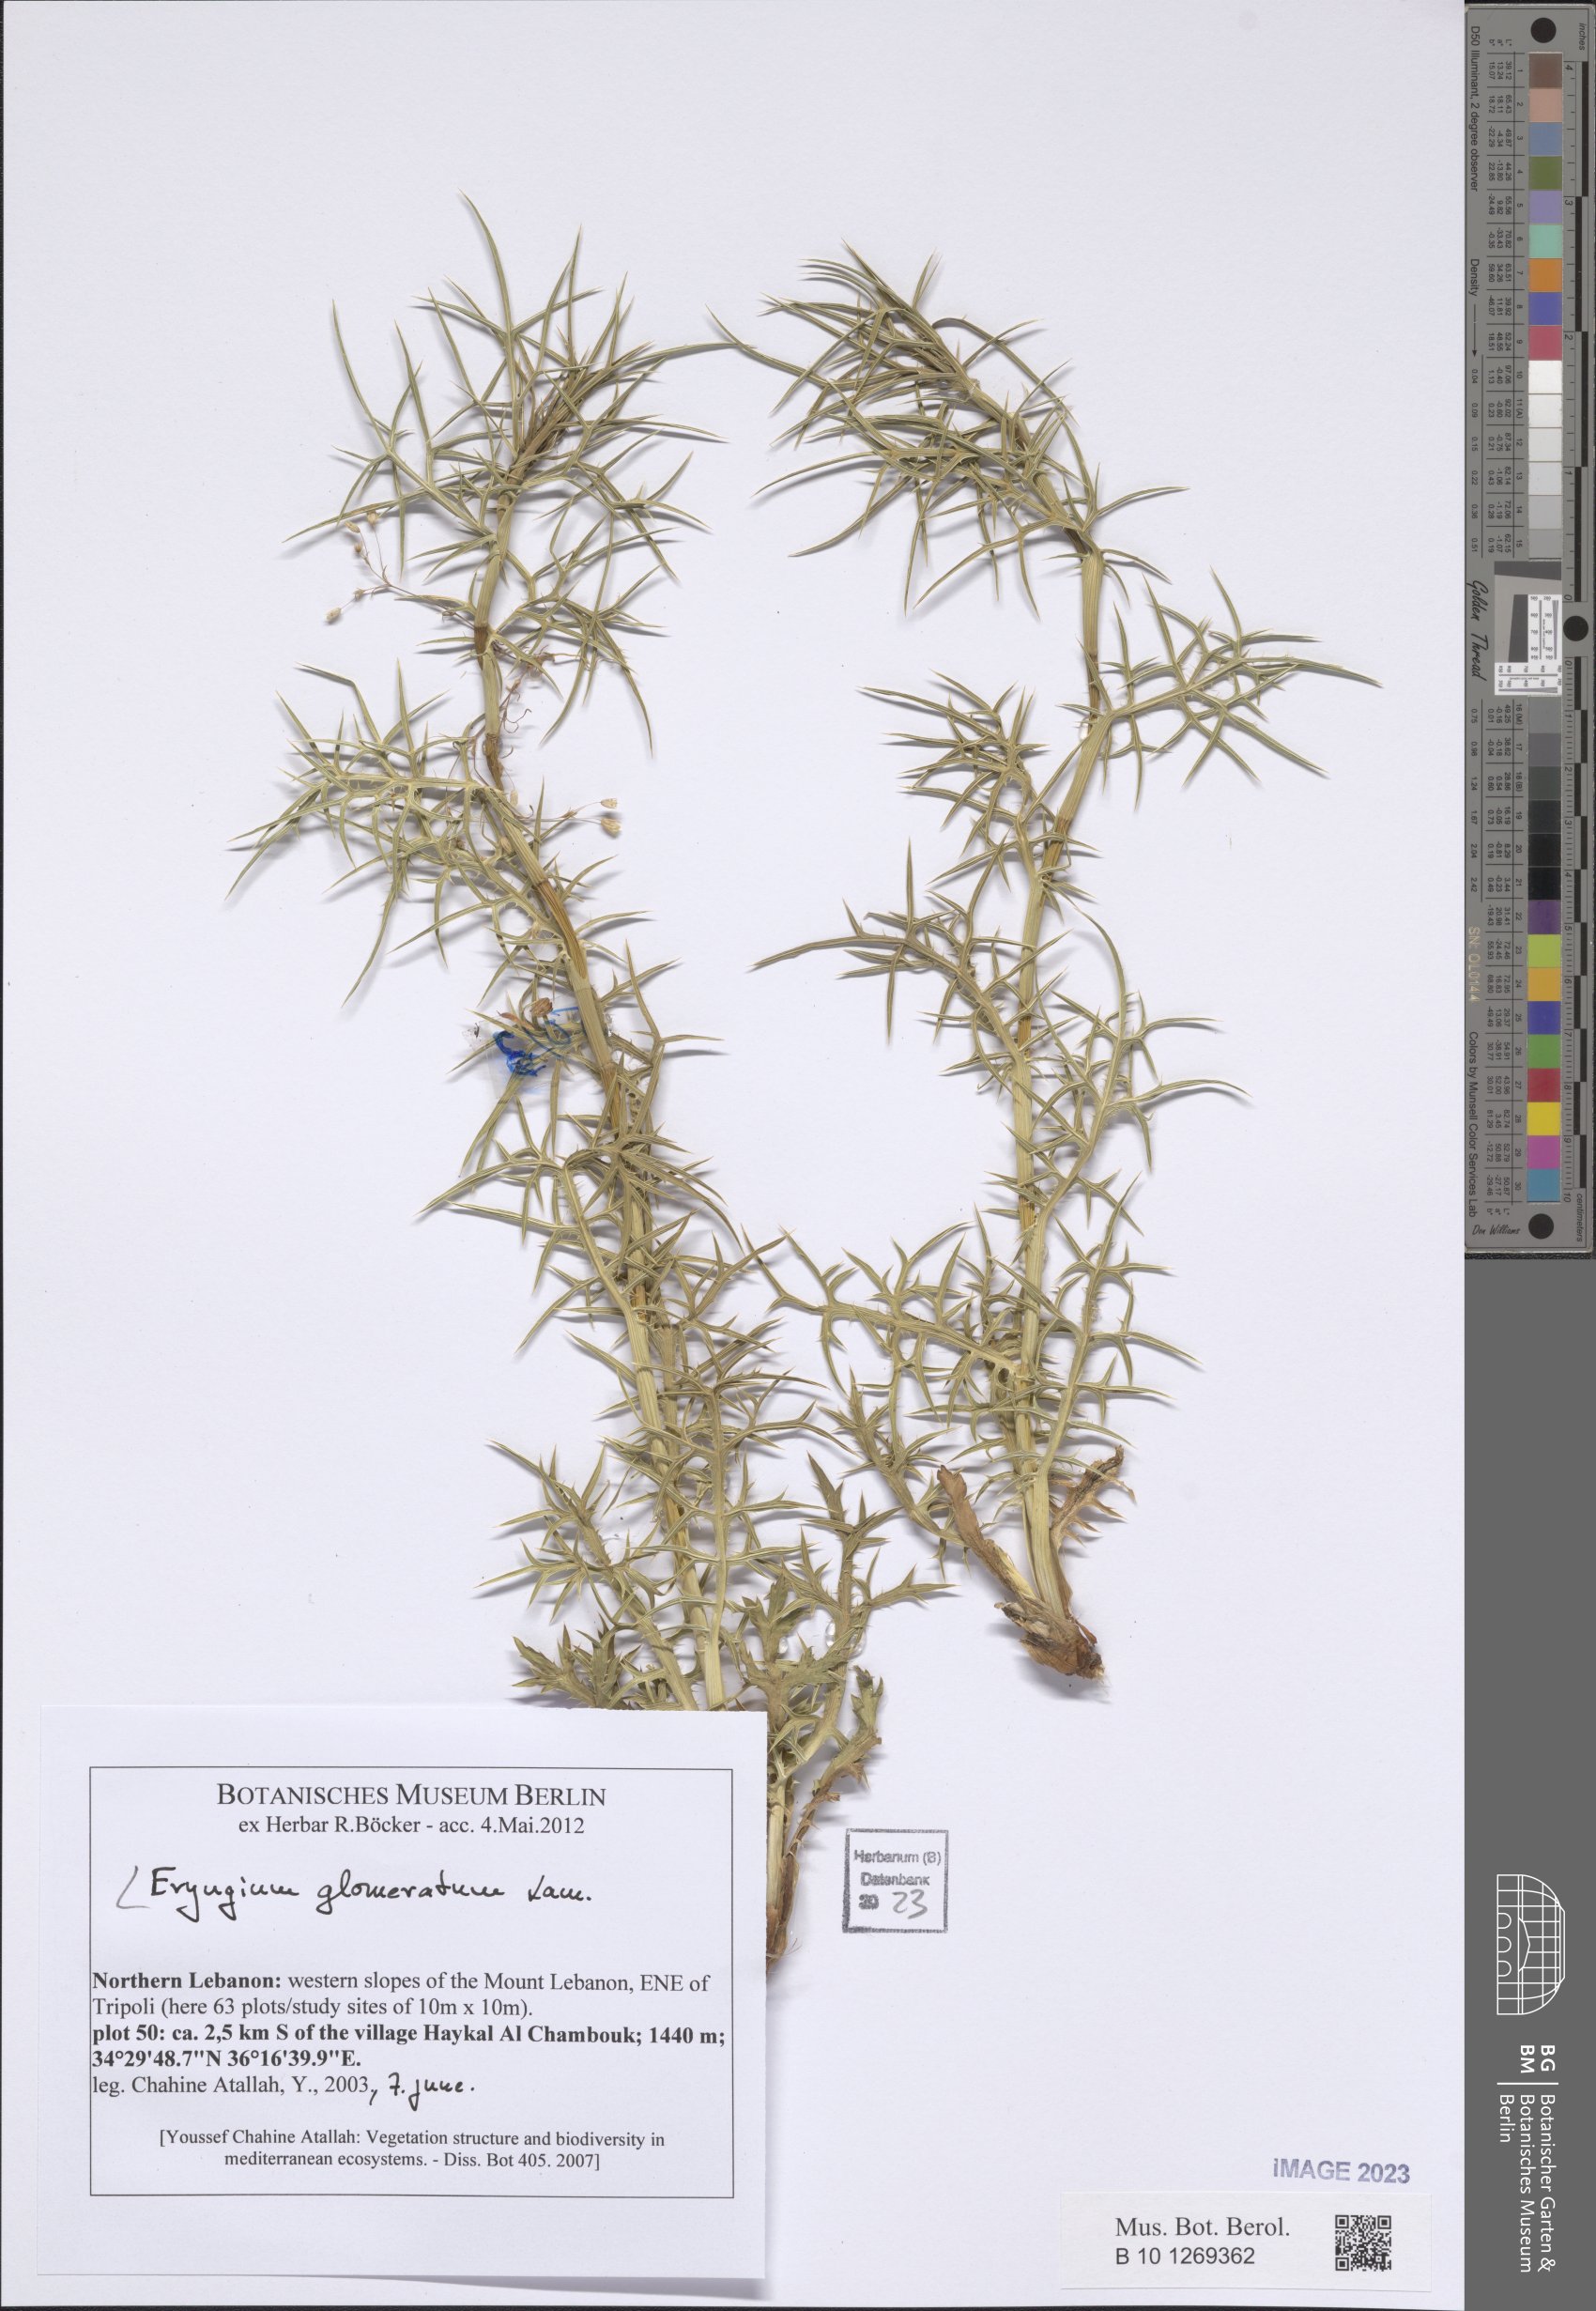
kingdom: Plantae
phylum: Tracheophyta
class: Magnoliopsida
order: Apiales
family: Apiaceae
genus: Eryngium
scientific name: Eryngium glomeratum
